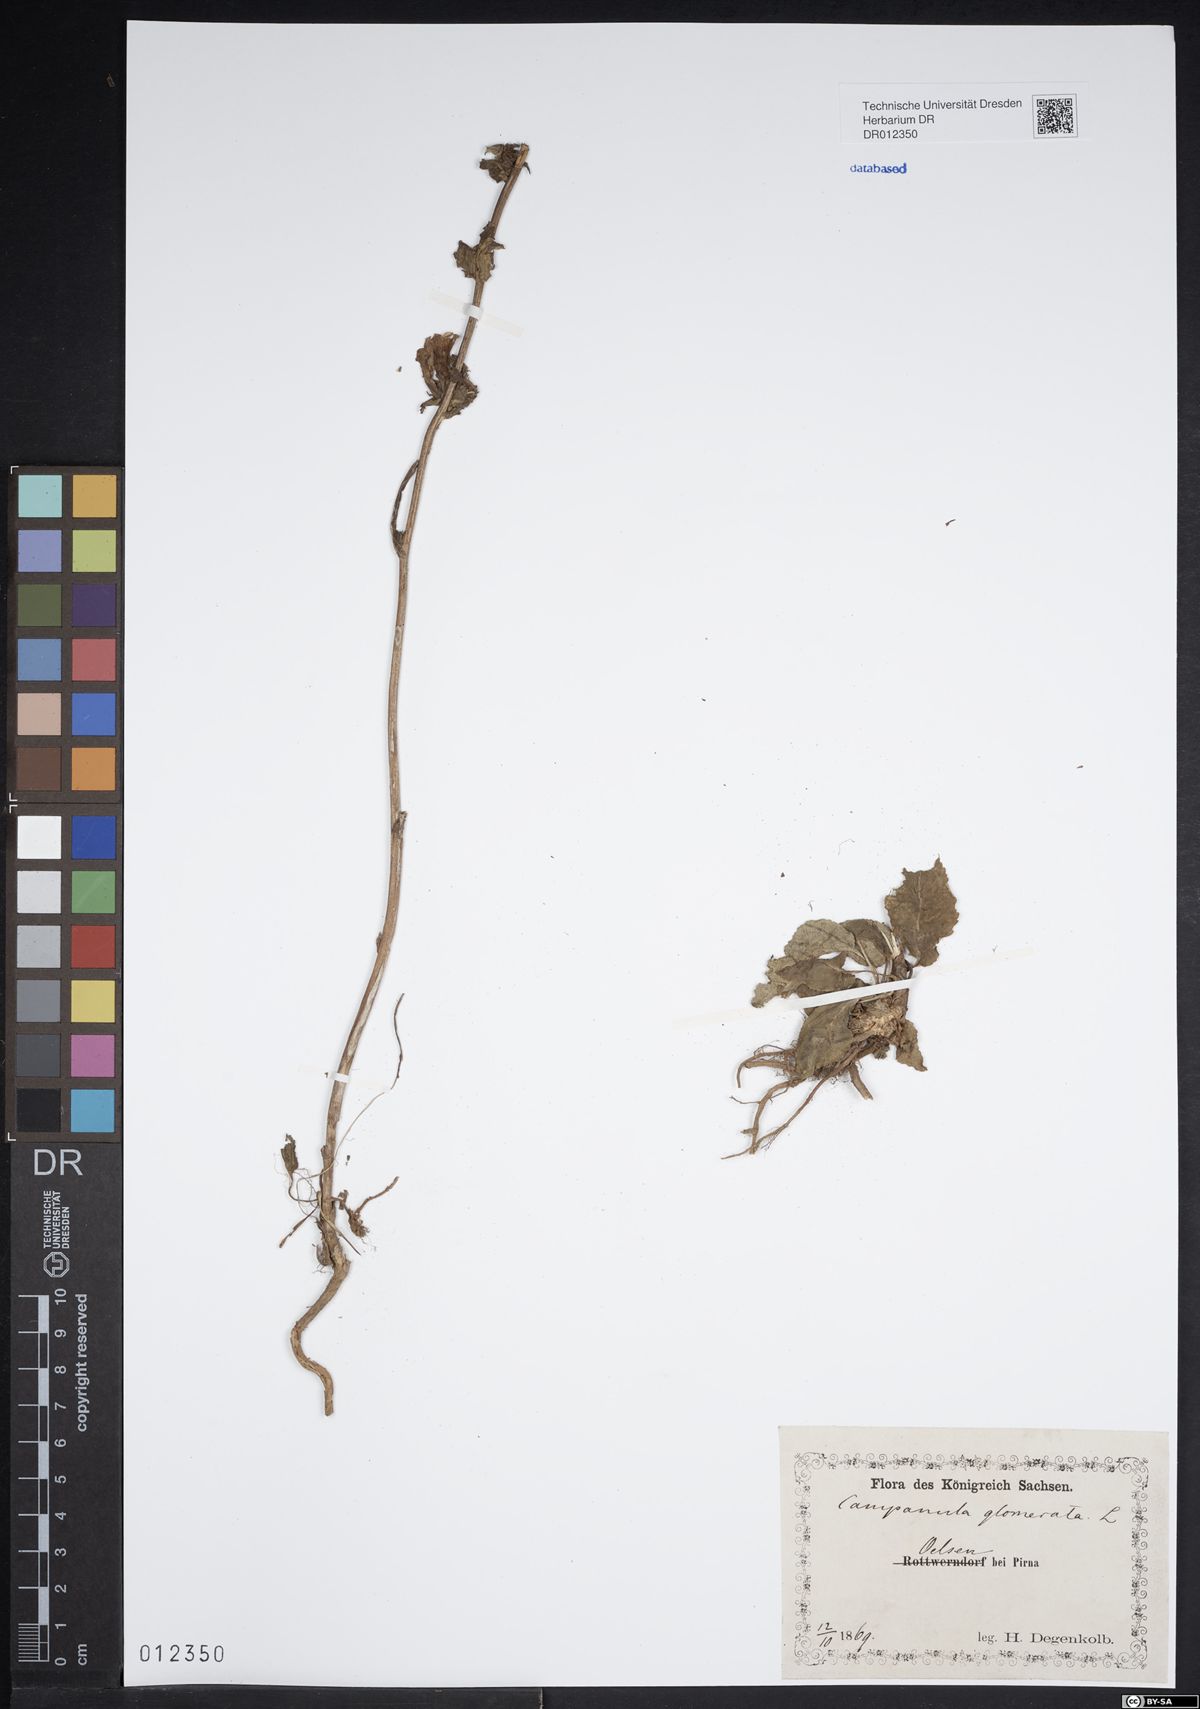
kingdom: Plantae
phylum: Tracheophyta
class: Magnoliopsida
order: Asterales
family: Campanulaceae
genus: Campanula
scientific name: Campanula glomerata
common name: Clustered bellflower
